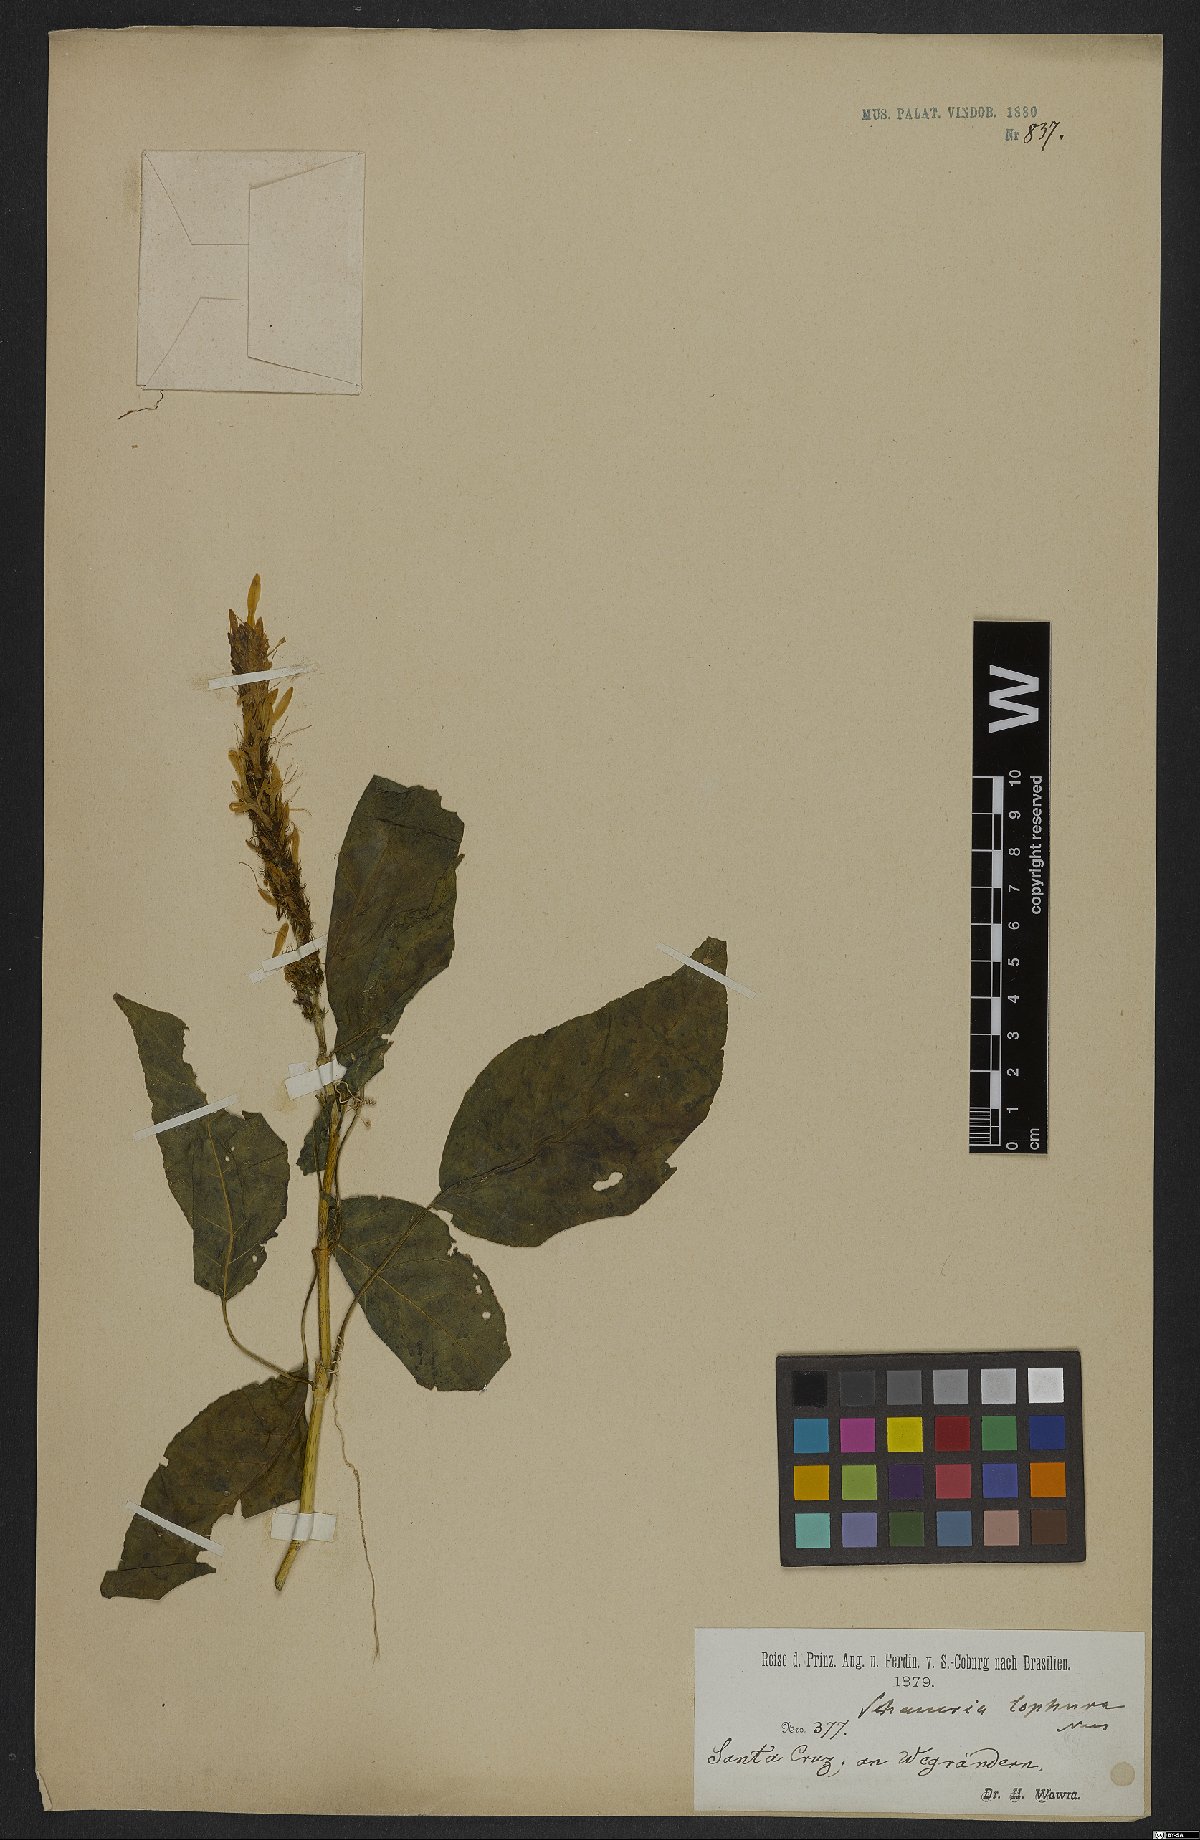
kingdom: Plantae
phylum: Tracheophyta
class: Magnoliopsida
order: Lamiales
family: Acanthaceae
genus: Schaueria
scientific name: Schaueria litoralis
